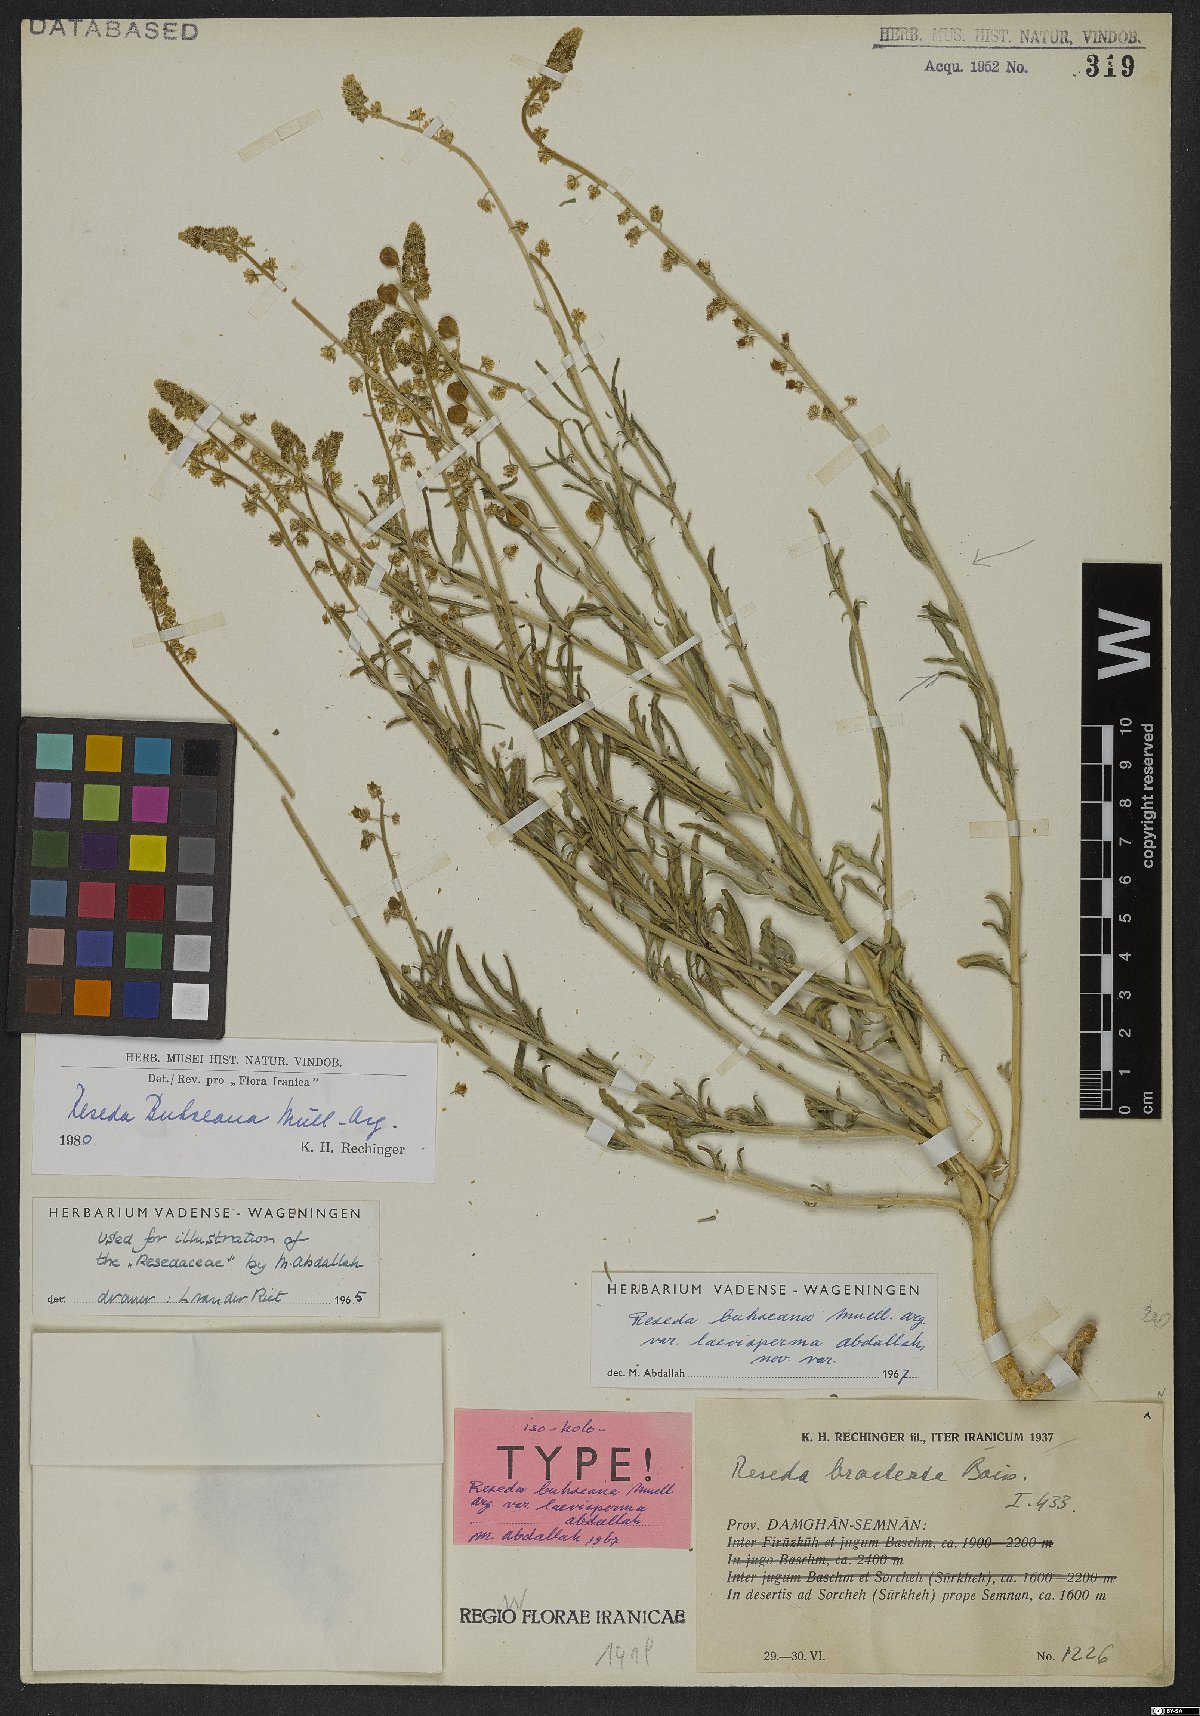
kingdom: Plantae
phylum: Tracheophyta
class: Magnoliopsida
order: Brassicales
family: Resedaceae
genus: Reseda
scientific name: Reseda buhseana
